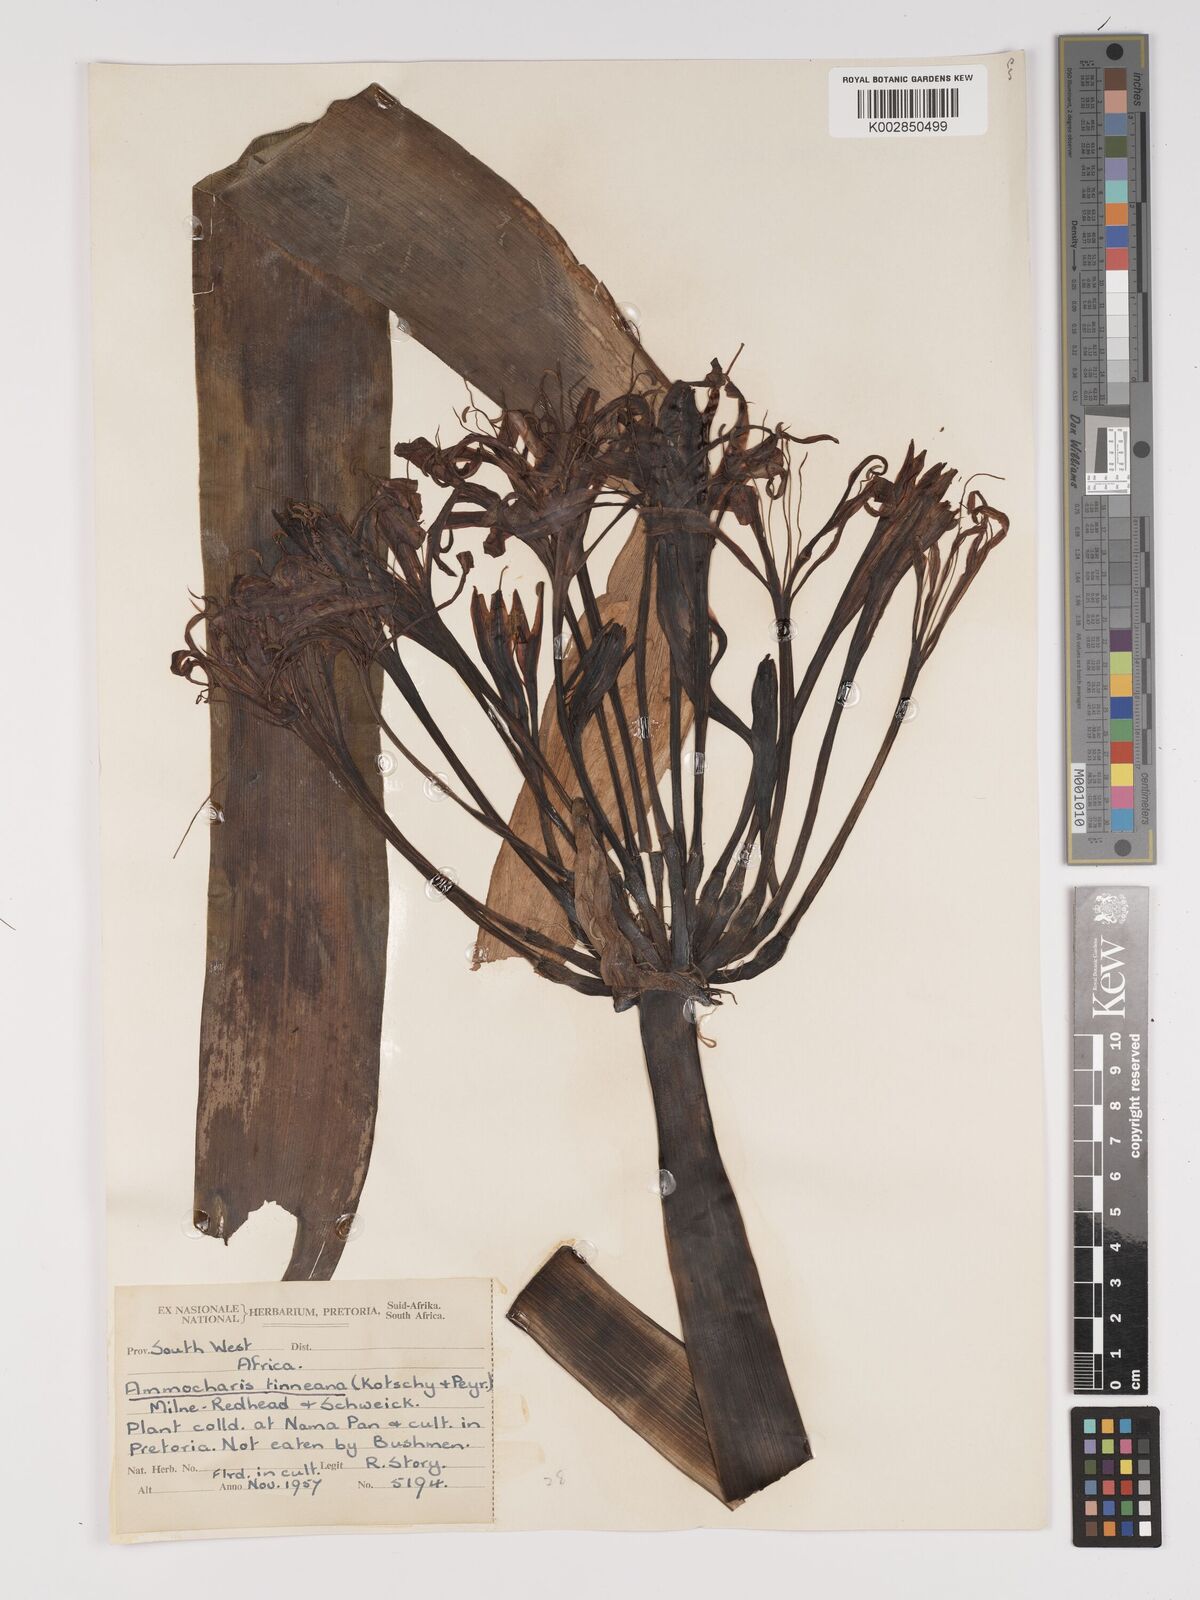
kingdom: Plantae
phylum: Tracheophyta
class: Liliopsida
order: Asparagales
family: Amaryllidaceae
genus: Ammocharis
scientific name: Ammocharis tinneana
